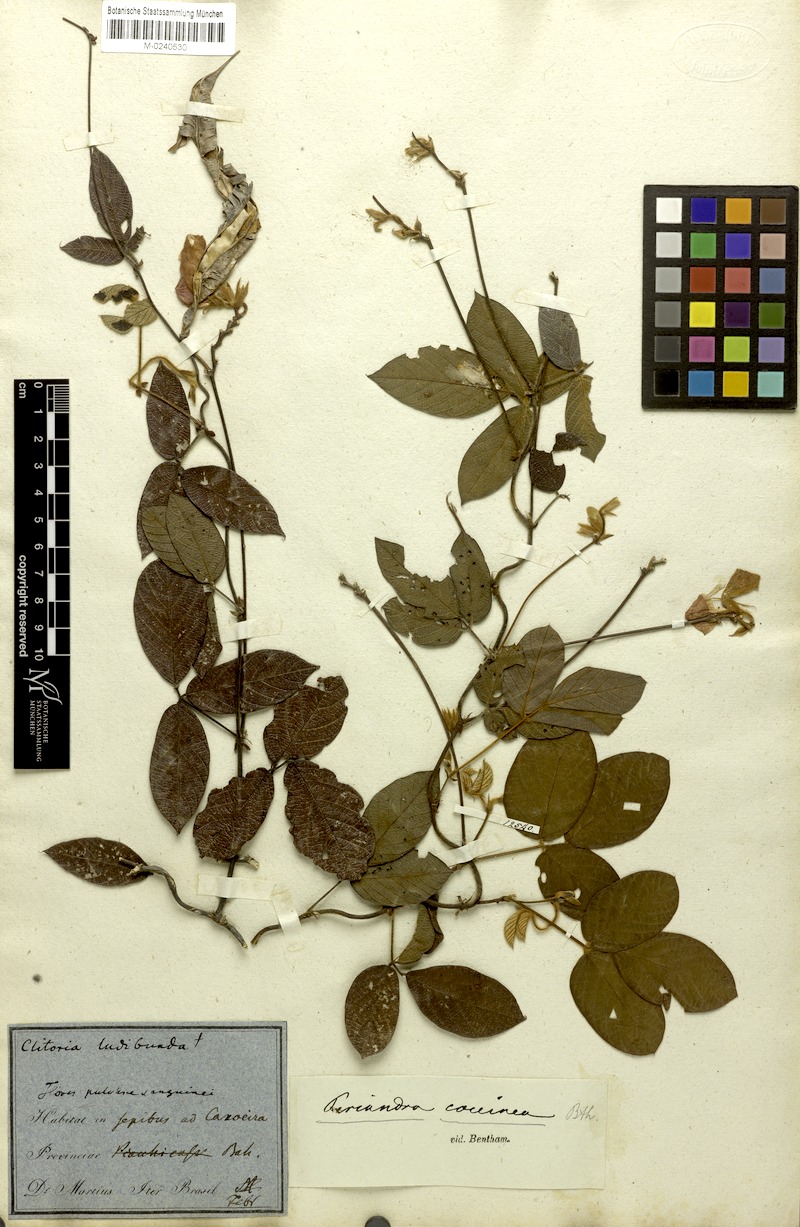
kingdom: Plantae
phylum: Tracheophyta
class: Magnoliopsida
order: Fabales
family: Fabaceae
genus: Periandra
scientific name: Periandra coccinea
